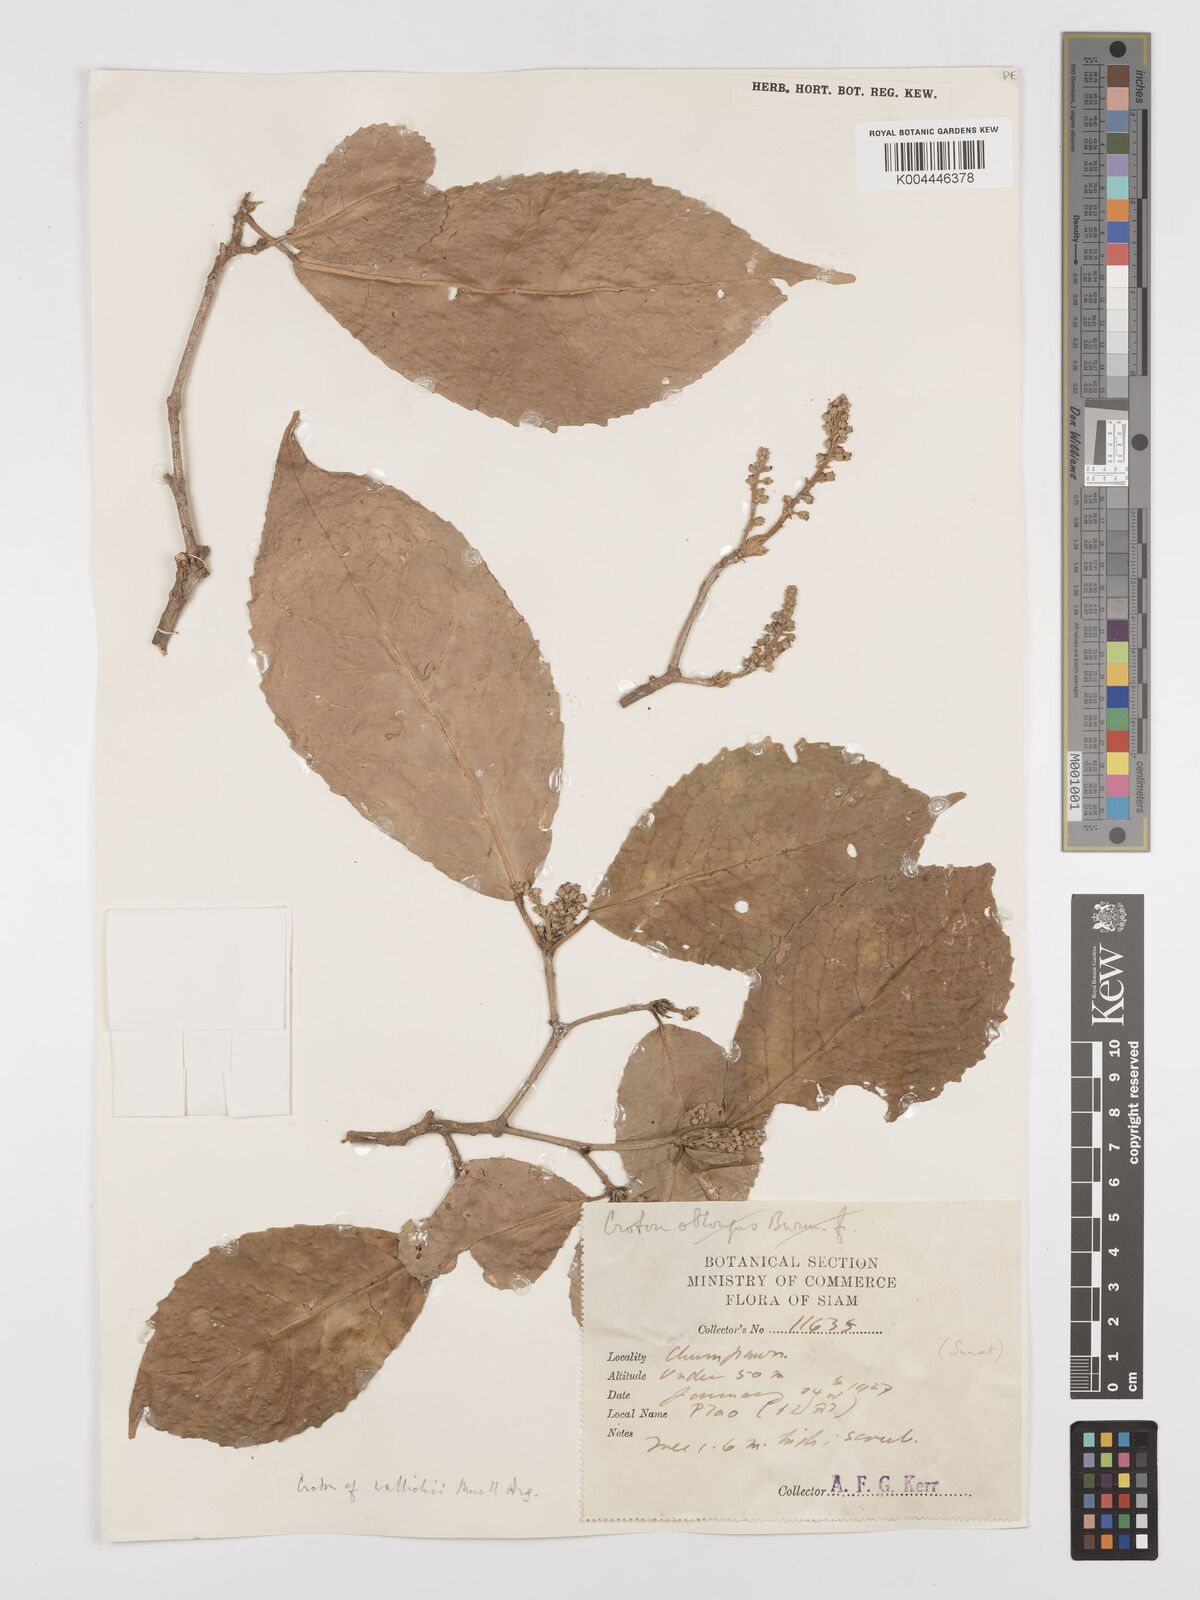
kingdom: Plantae
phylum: Tracheophyta
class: Magnoliopsida
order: Malpighiales
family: Euphorbiaceae
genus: Croton
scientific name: Croton wallichii
